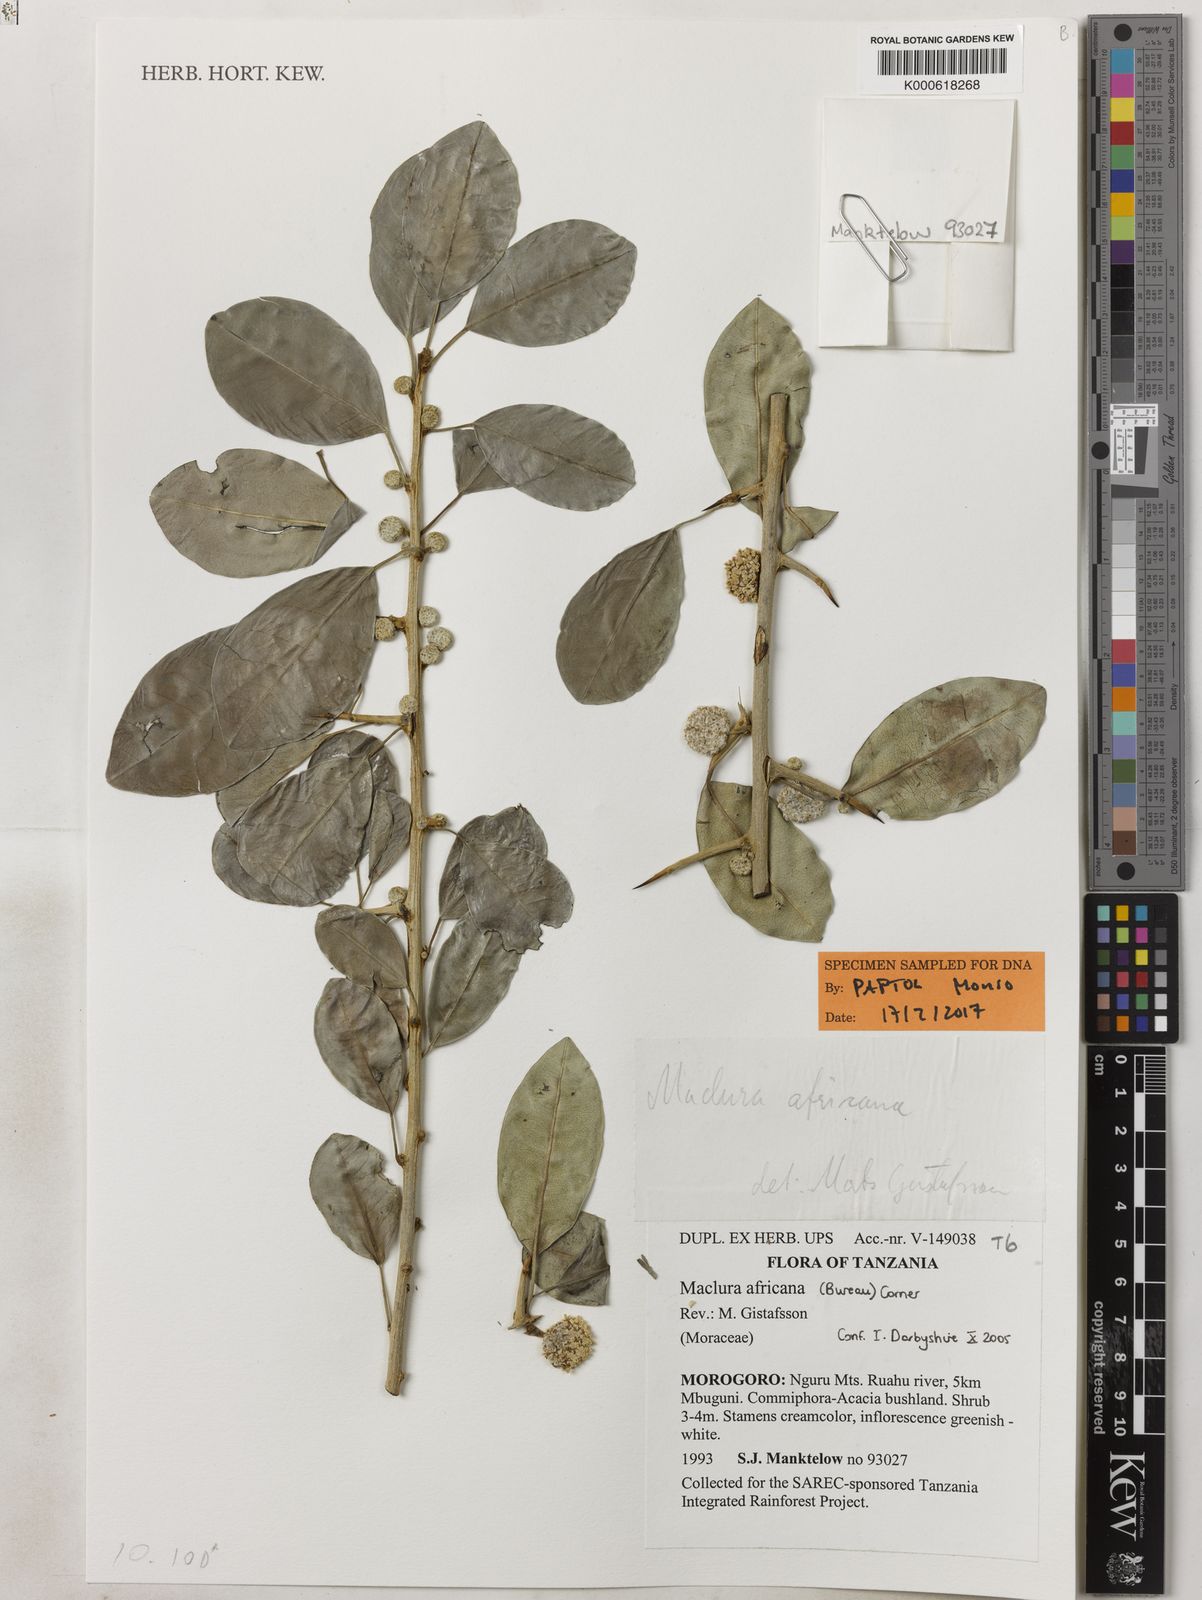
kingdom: Plantae
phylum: Tracheophyta
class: Magnoliopsida
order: Rosales
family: Moraceae
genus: Maclura
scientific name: Maclura africana
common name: African osage orange
